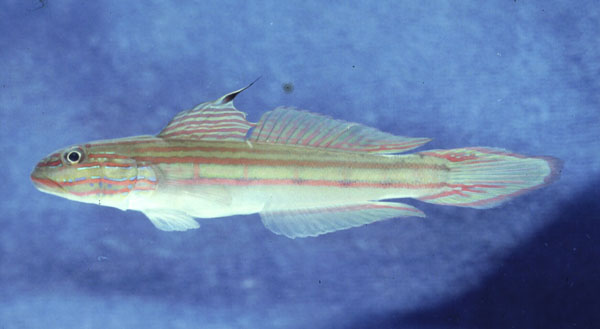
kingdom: Animalia
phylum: Chordata
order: Perciformes
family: Gobiidae
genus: Valenciennea
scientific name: Valenciennea muralis
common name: Mural goby
